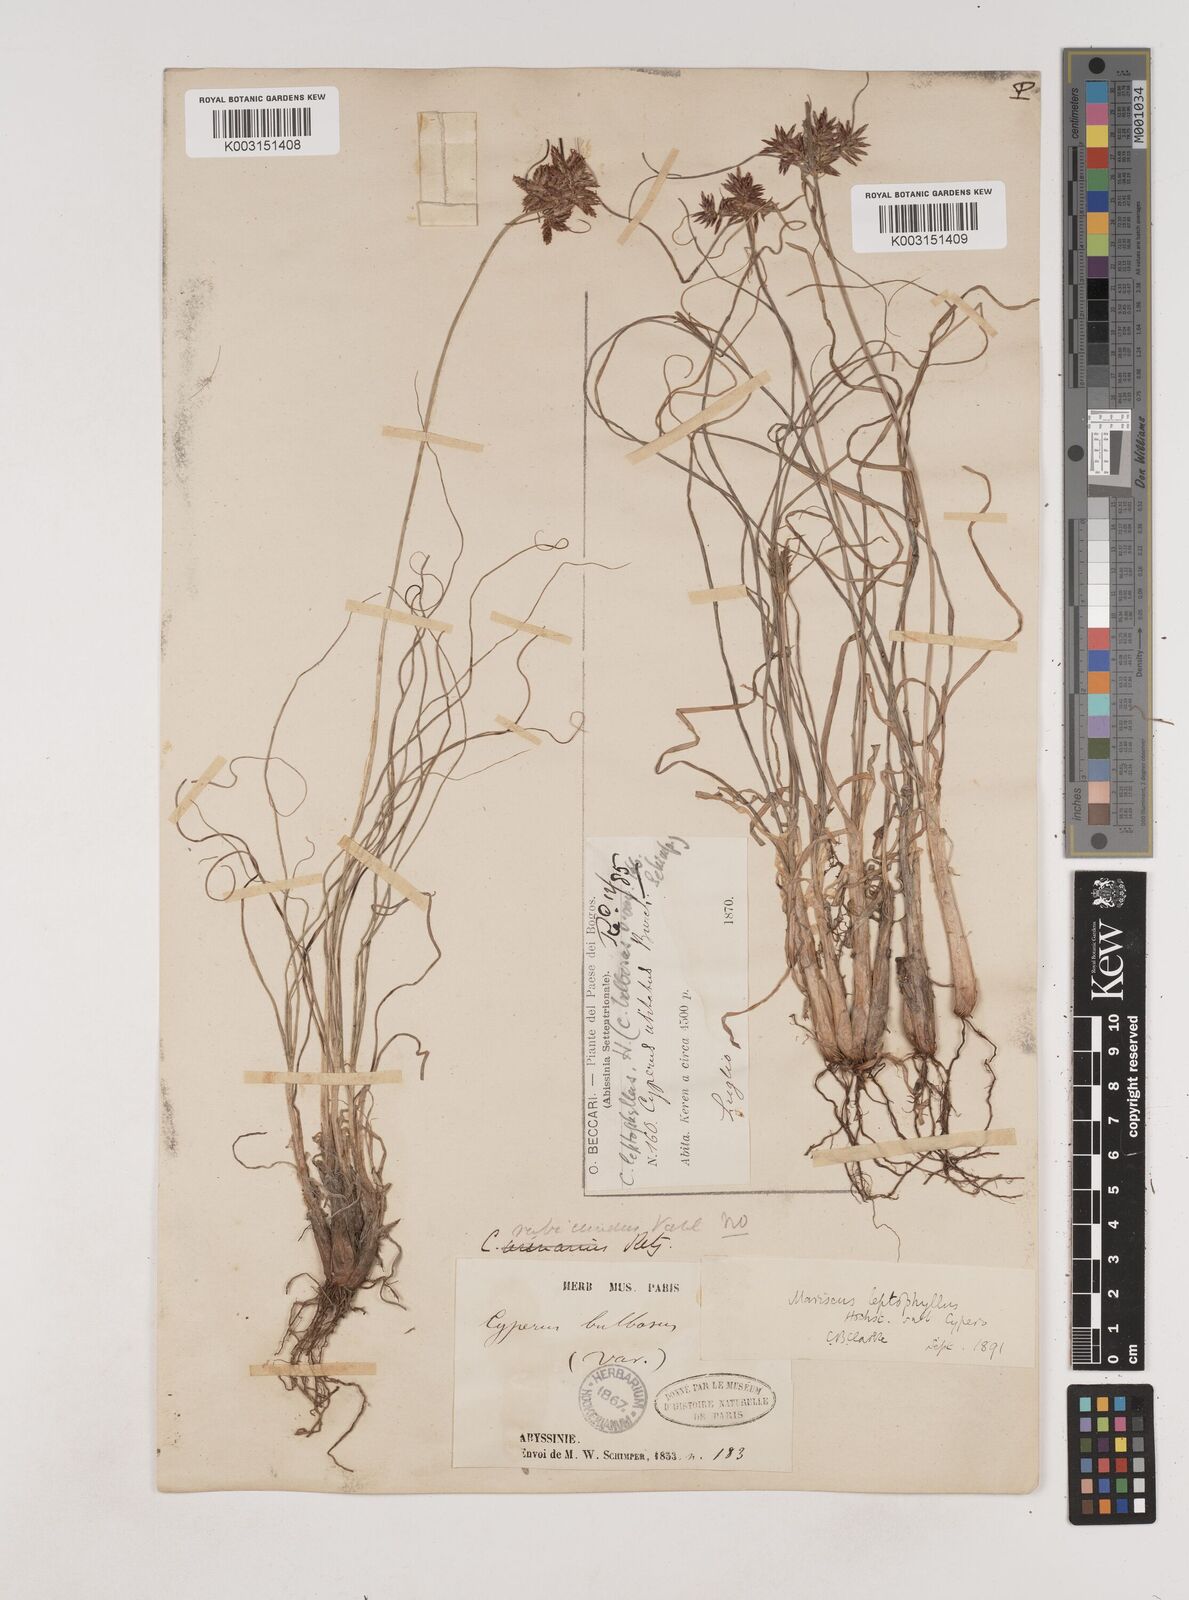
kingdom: Plantae
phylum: Tracheophyta
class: Liliopsida
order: Poales
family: Cyperaceae
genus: Cyperus
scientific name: Cyperus amauropus
